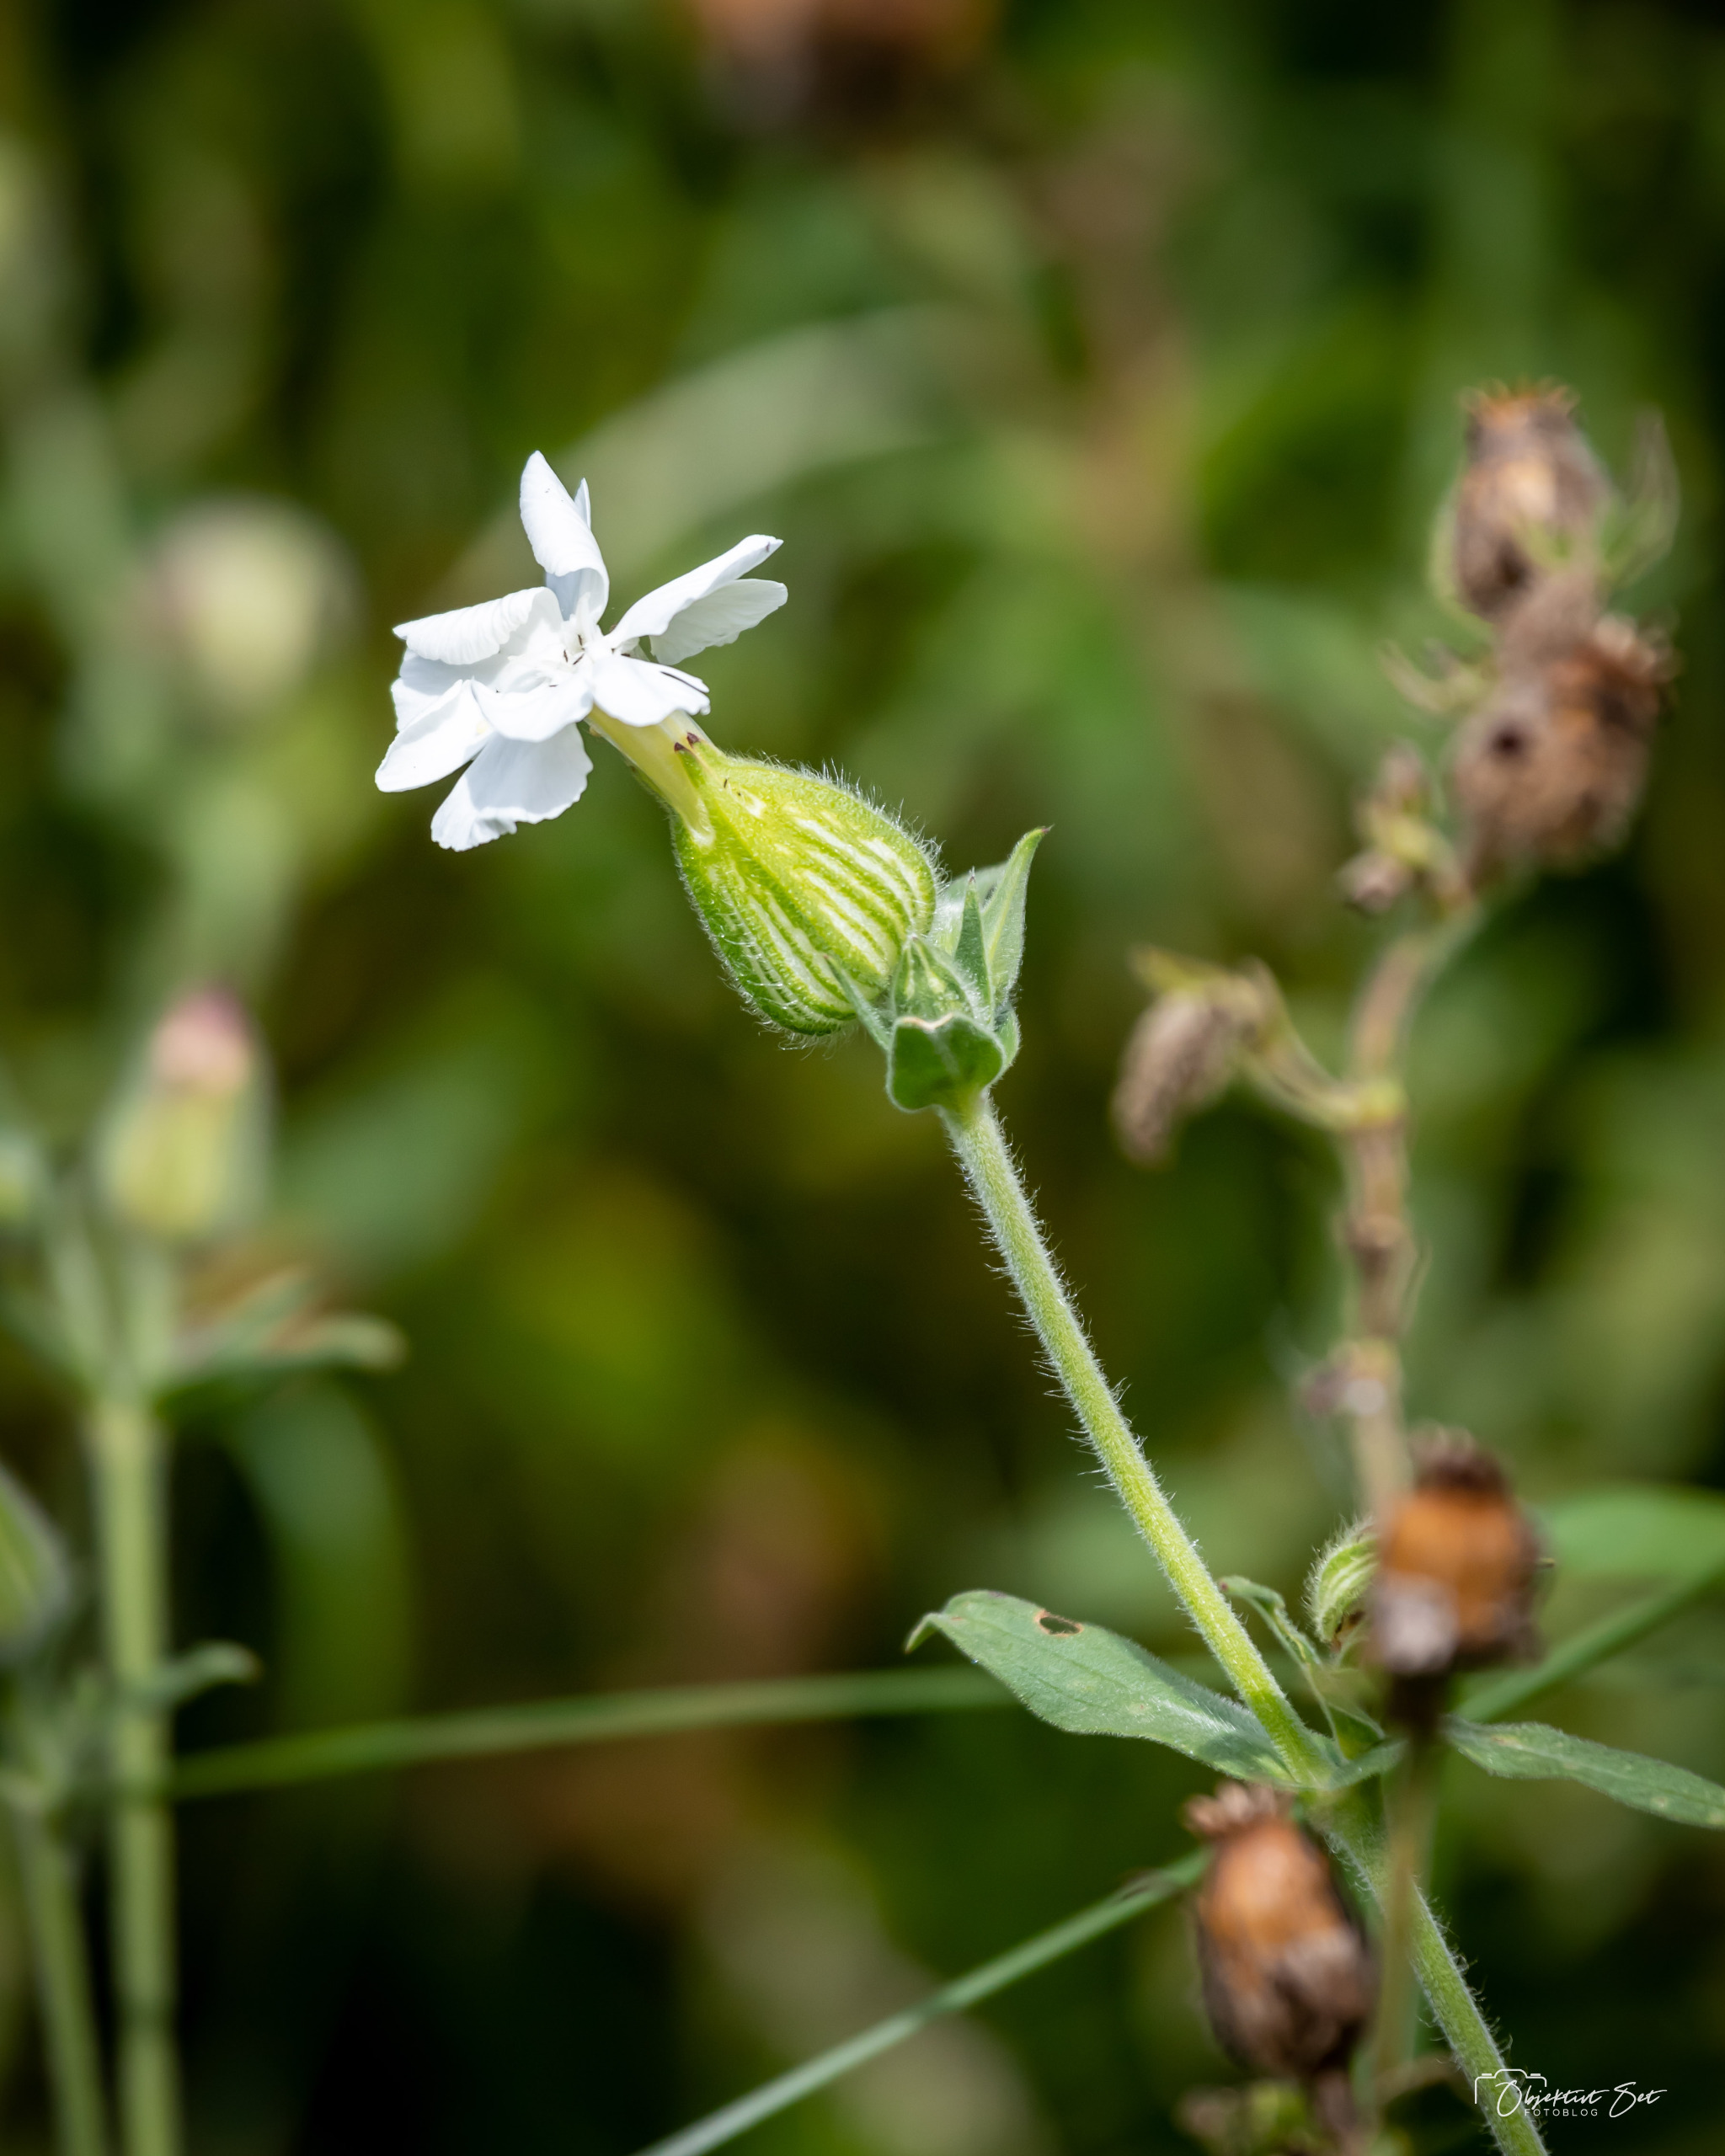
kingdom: Plantae
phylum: Tracheophyta
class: Magnoliopsida
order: Caryophyllales
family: Caryophyllaceae
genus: Silene
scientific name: Silene latifolia
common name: Aftenpragtstjerne
